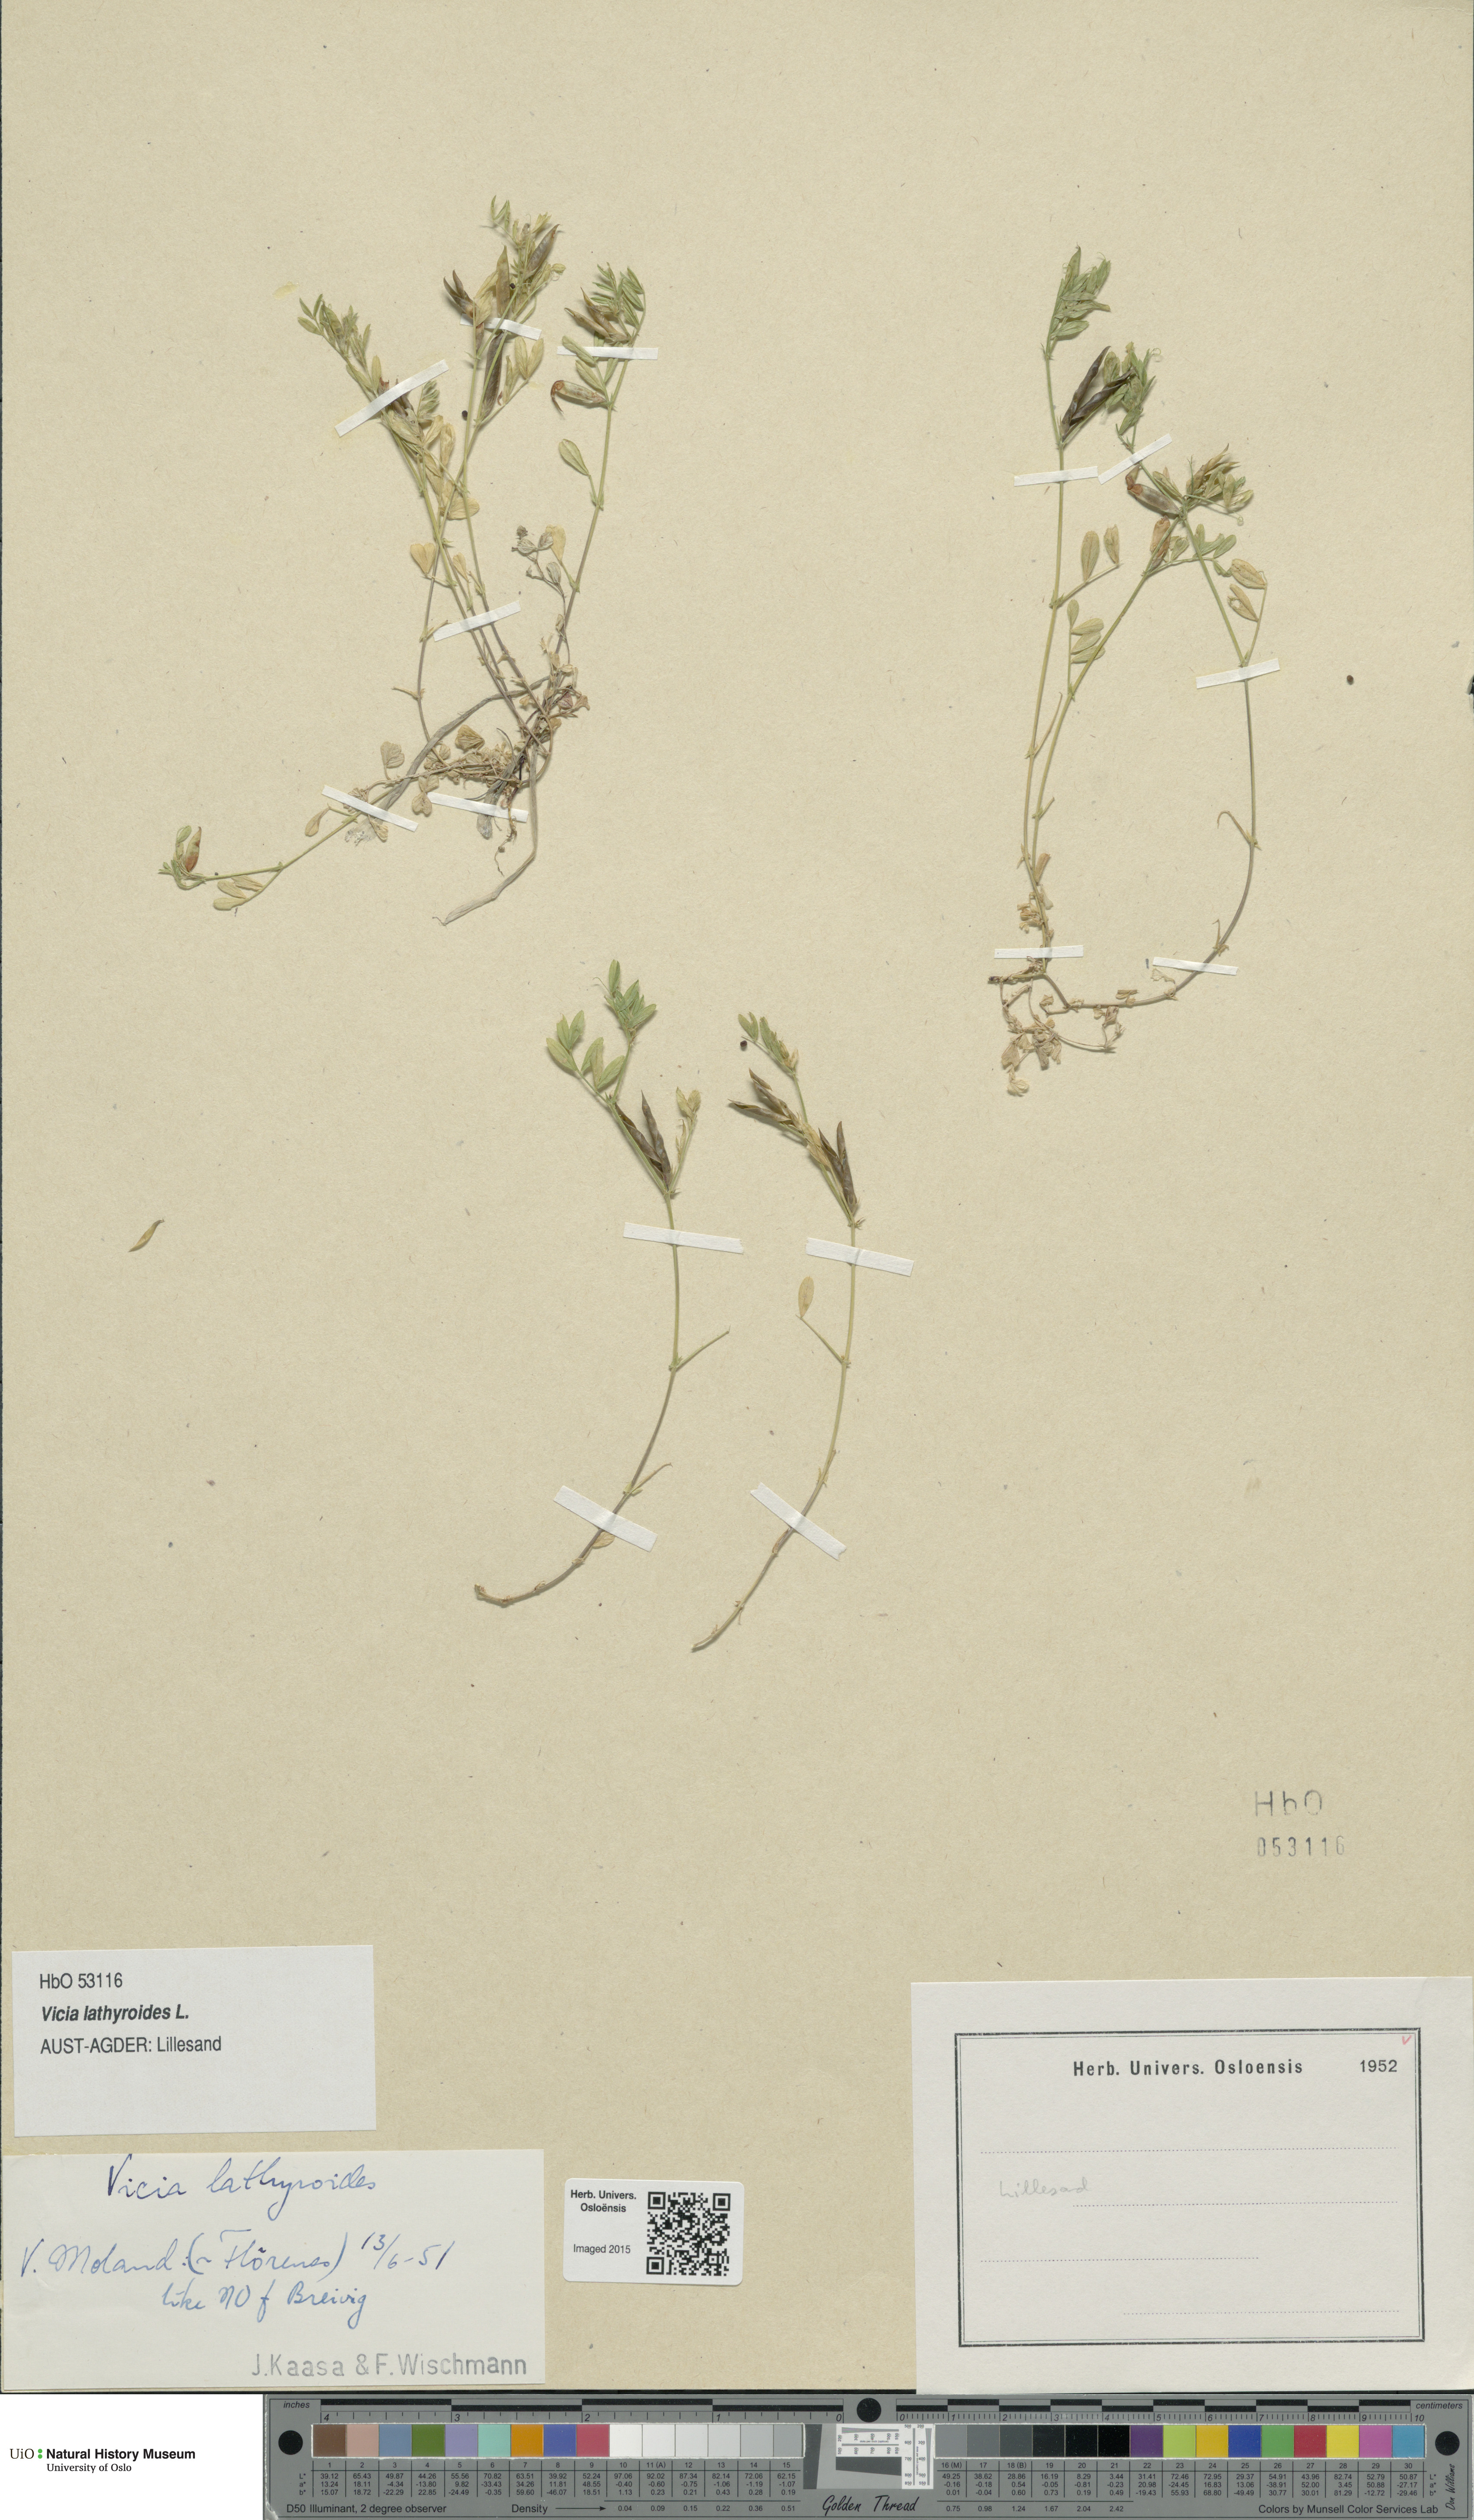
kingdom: Plantae
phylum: Tracheophyta
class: Magnoliopsida
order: Fabales
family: Fabaceae
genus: Vicia
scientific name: Vicia lathyroides
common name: Spring vetch
